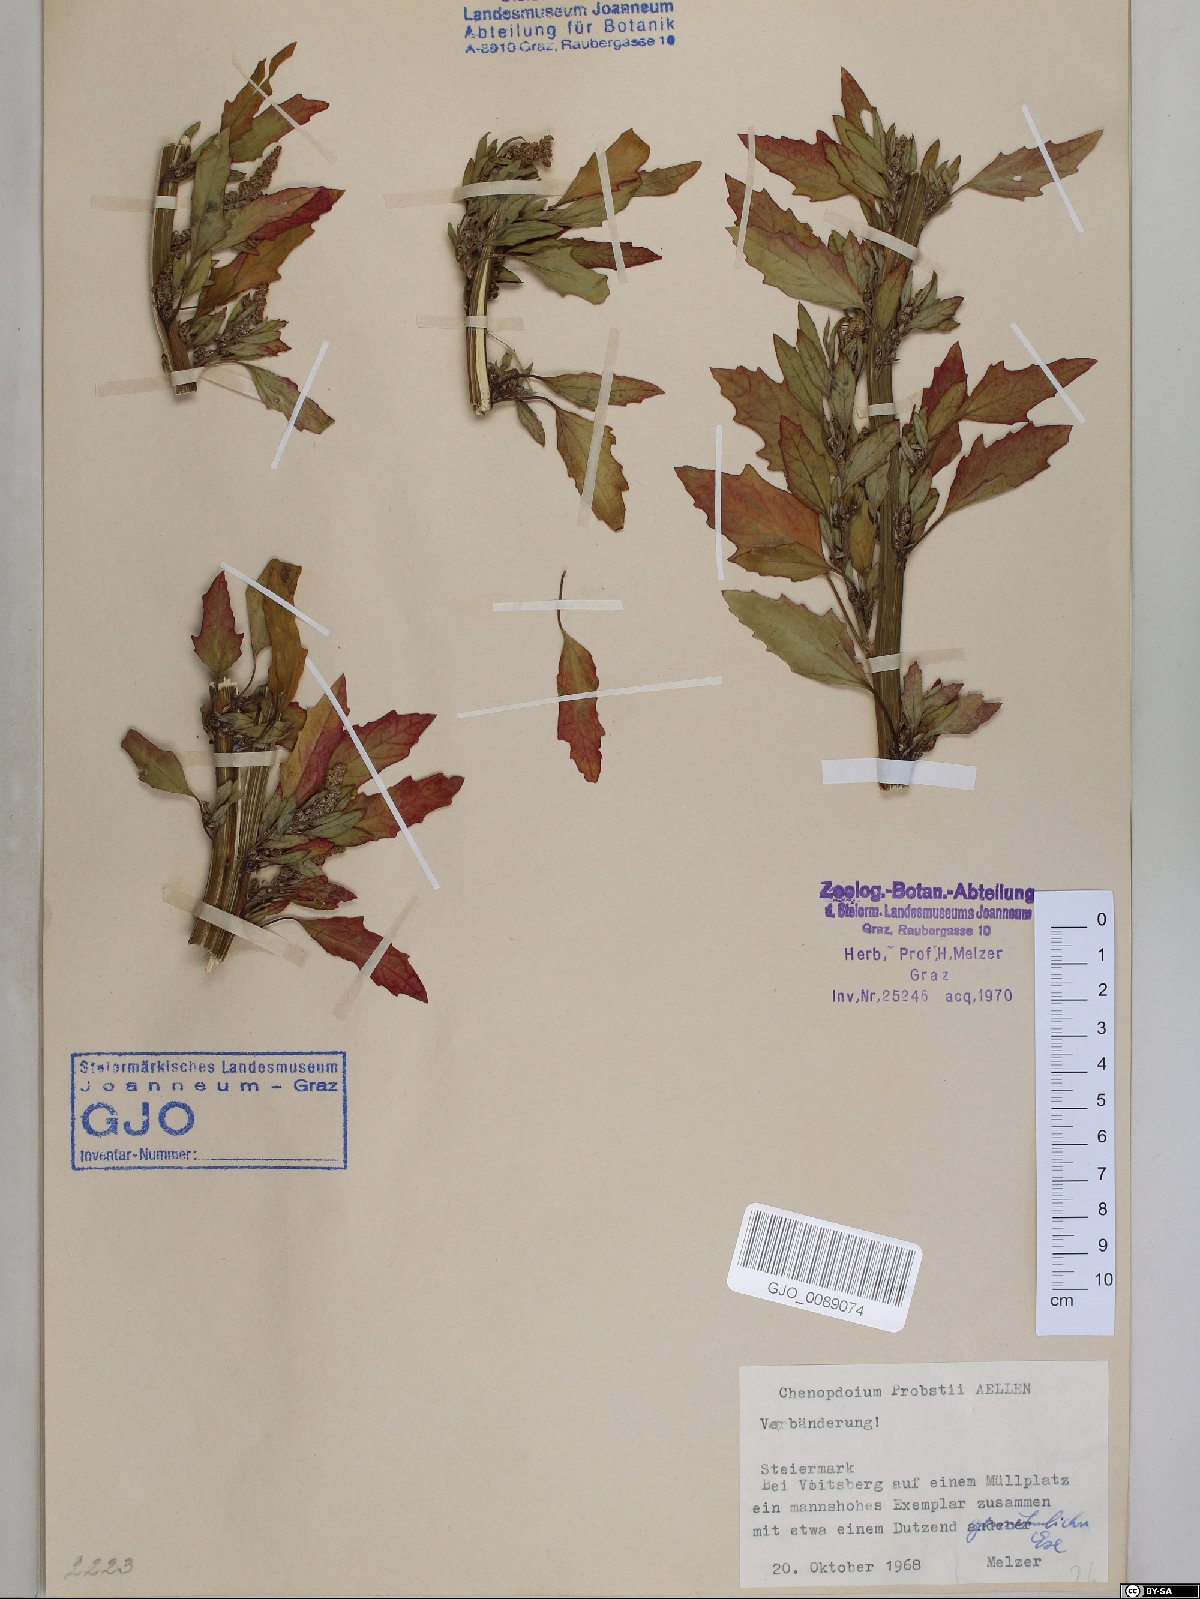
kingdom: Plantae
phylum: Tracheophyta
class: Magnoliopsida
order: Caryophyllales
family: Amaranthaceae
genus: Chenopodium
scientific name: Chenopodium probstii
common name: Probst's goosefoot
